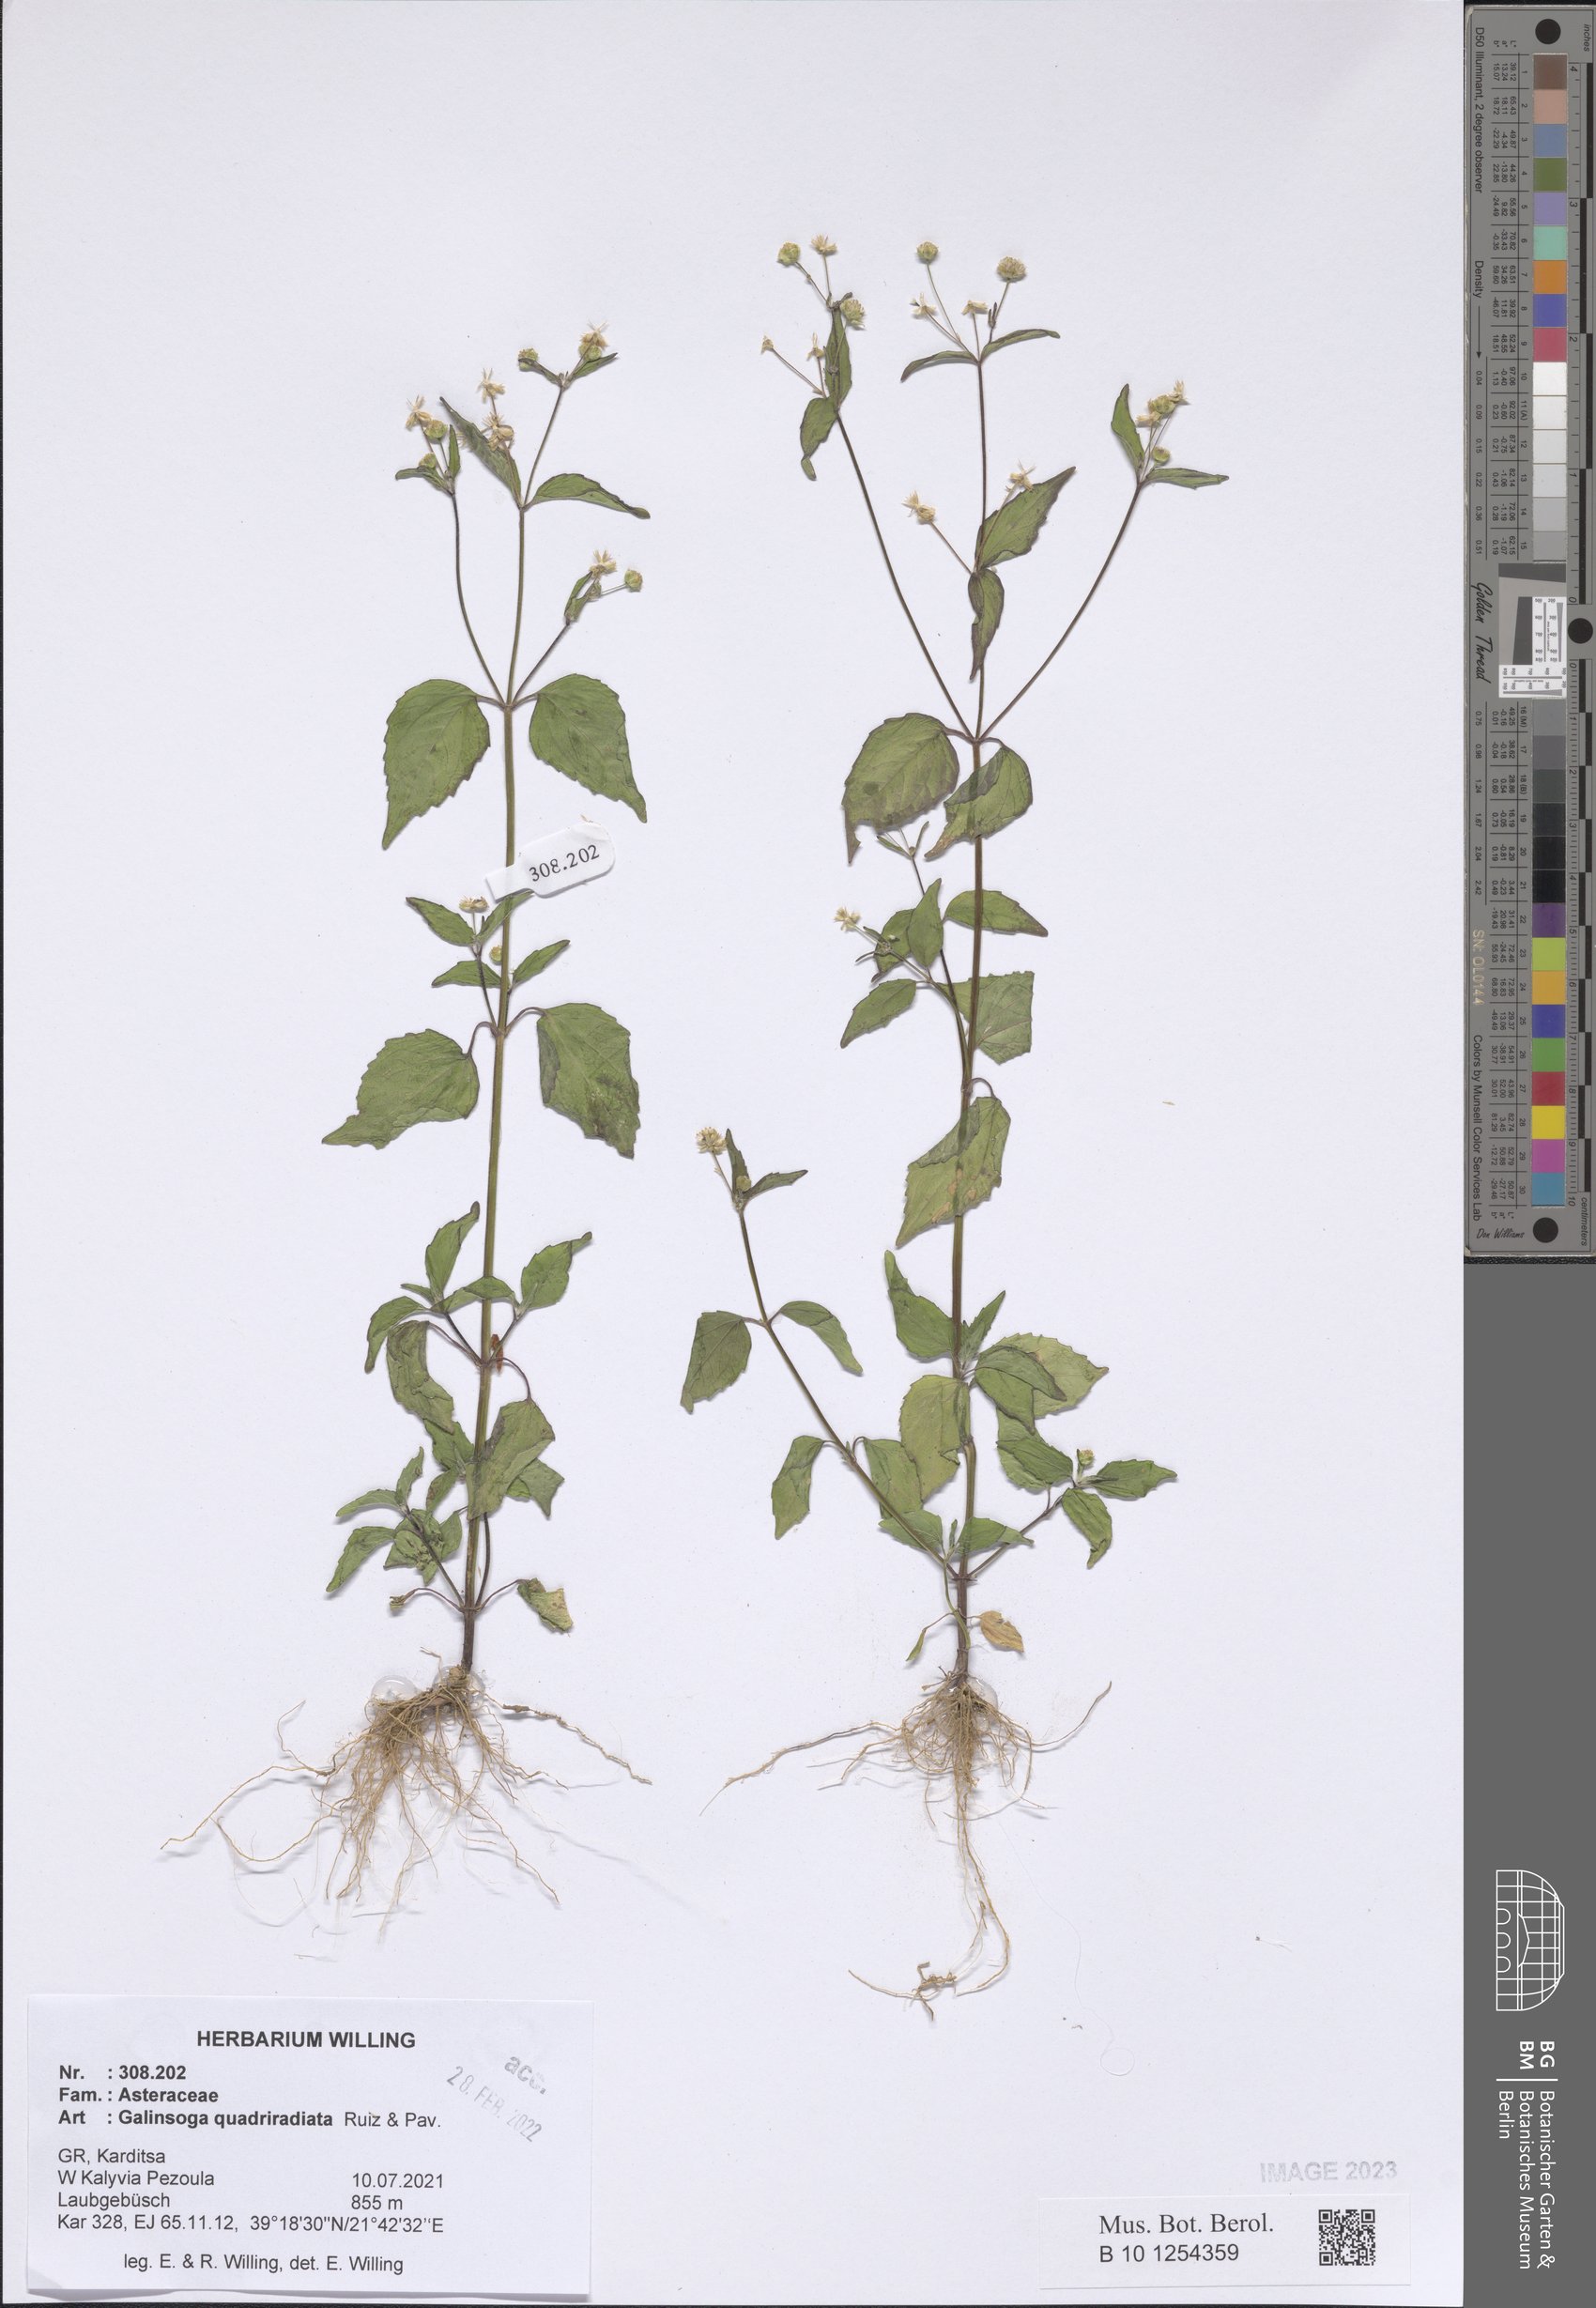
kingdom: Plantae
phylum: Tracheophyta
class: Magnoliopsida
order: Asterales
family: Asteraceae
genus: Galinsoga
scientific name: Galinsoga quadriradiata
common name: Shaggy soldier
